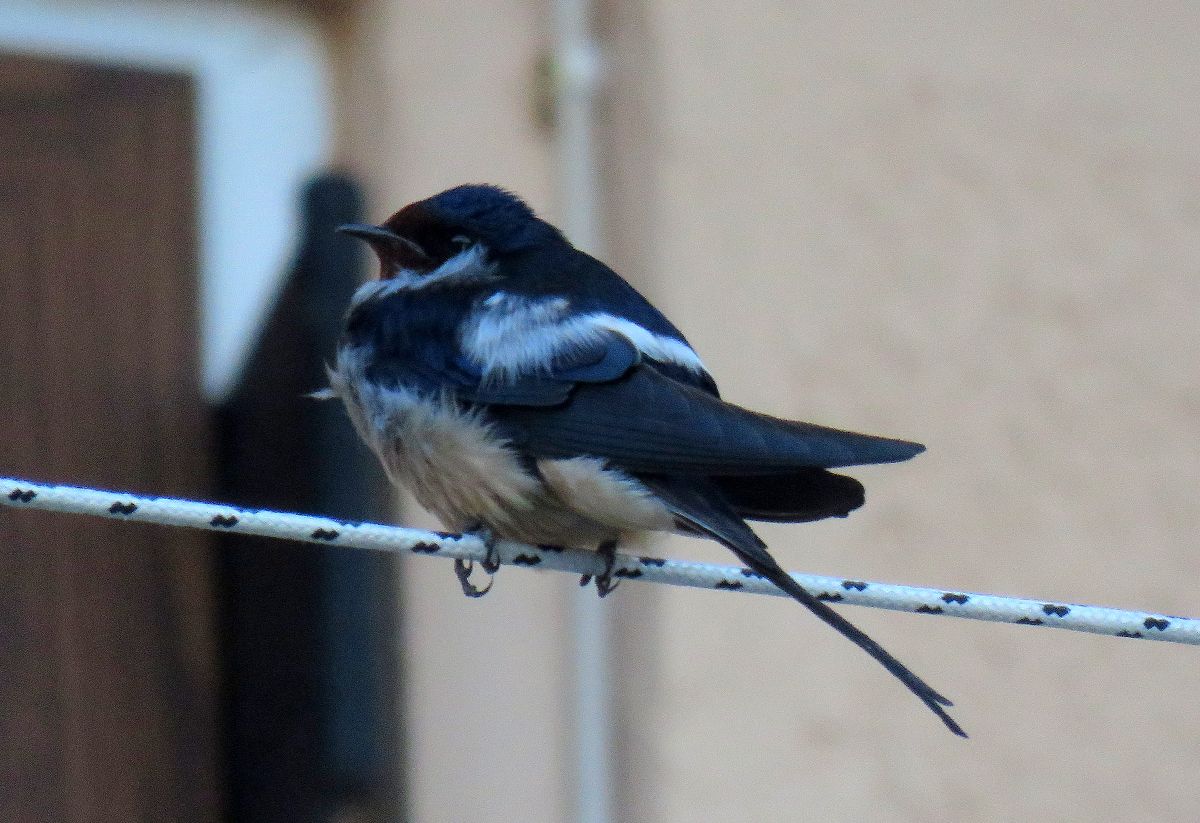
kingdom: Animalia
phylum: Chordata
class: Aves
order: Passeriformes
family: Hirundinidae
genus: Hirundo
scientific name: Hirundo rustica
